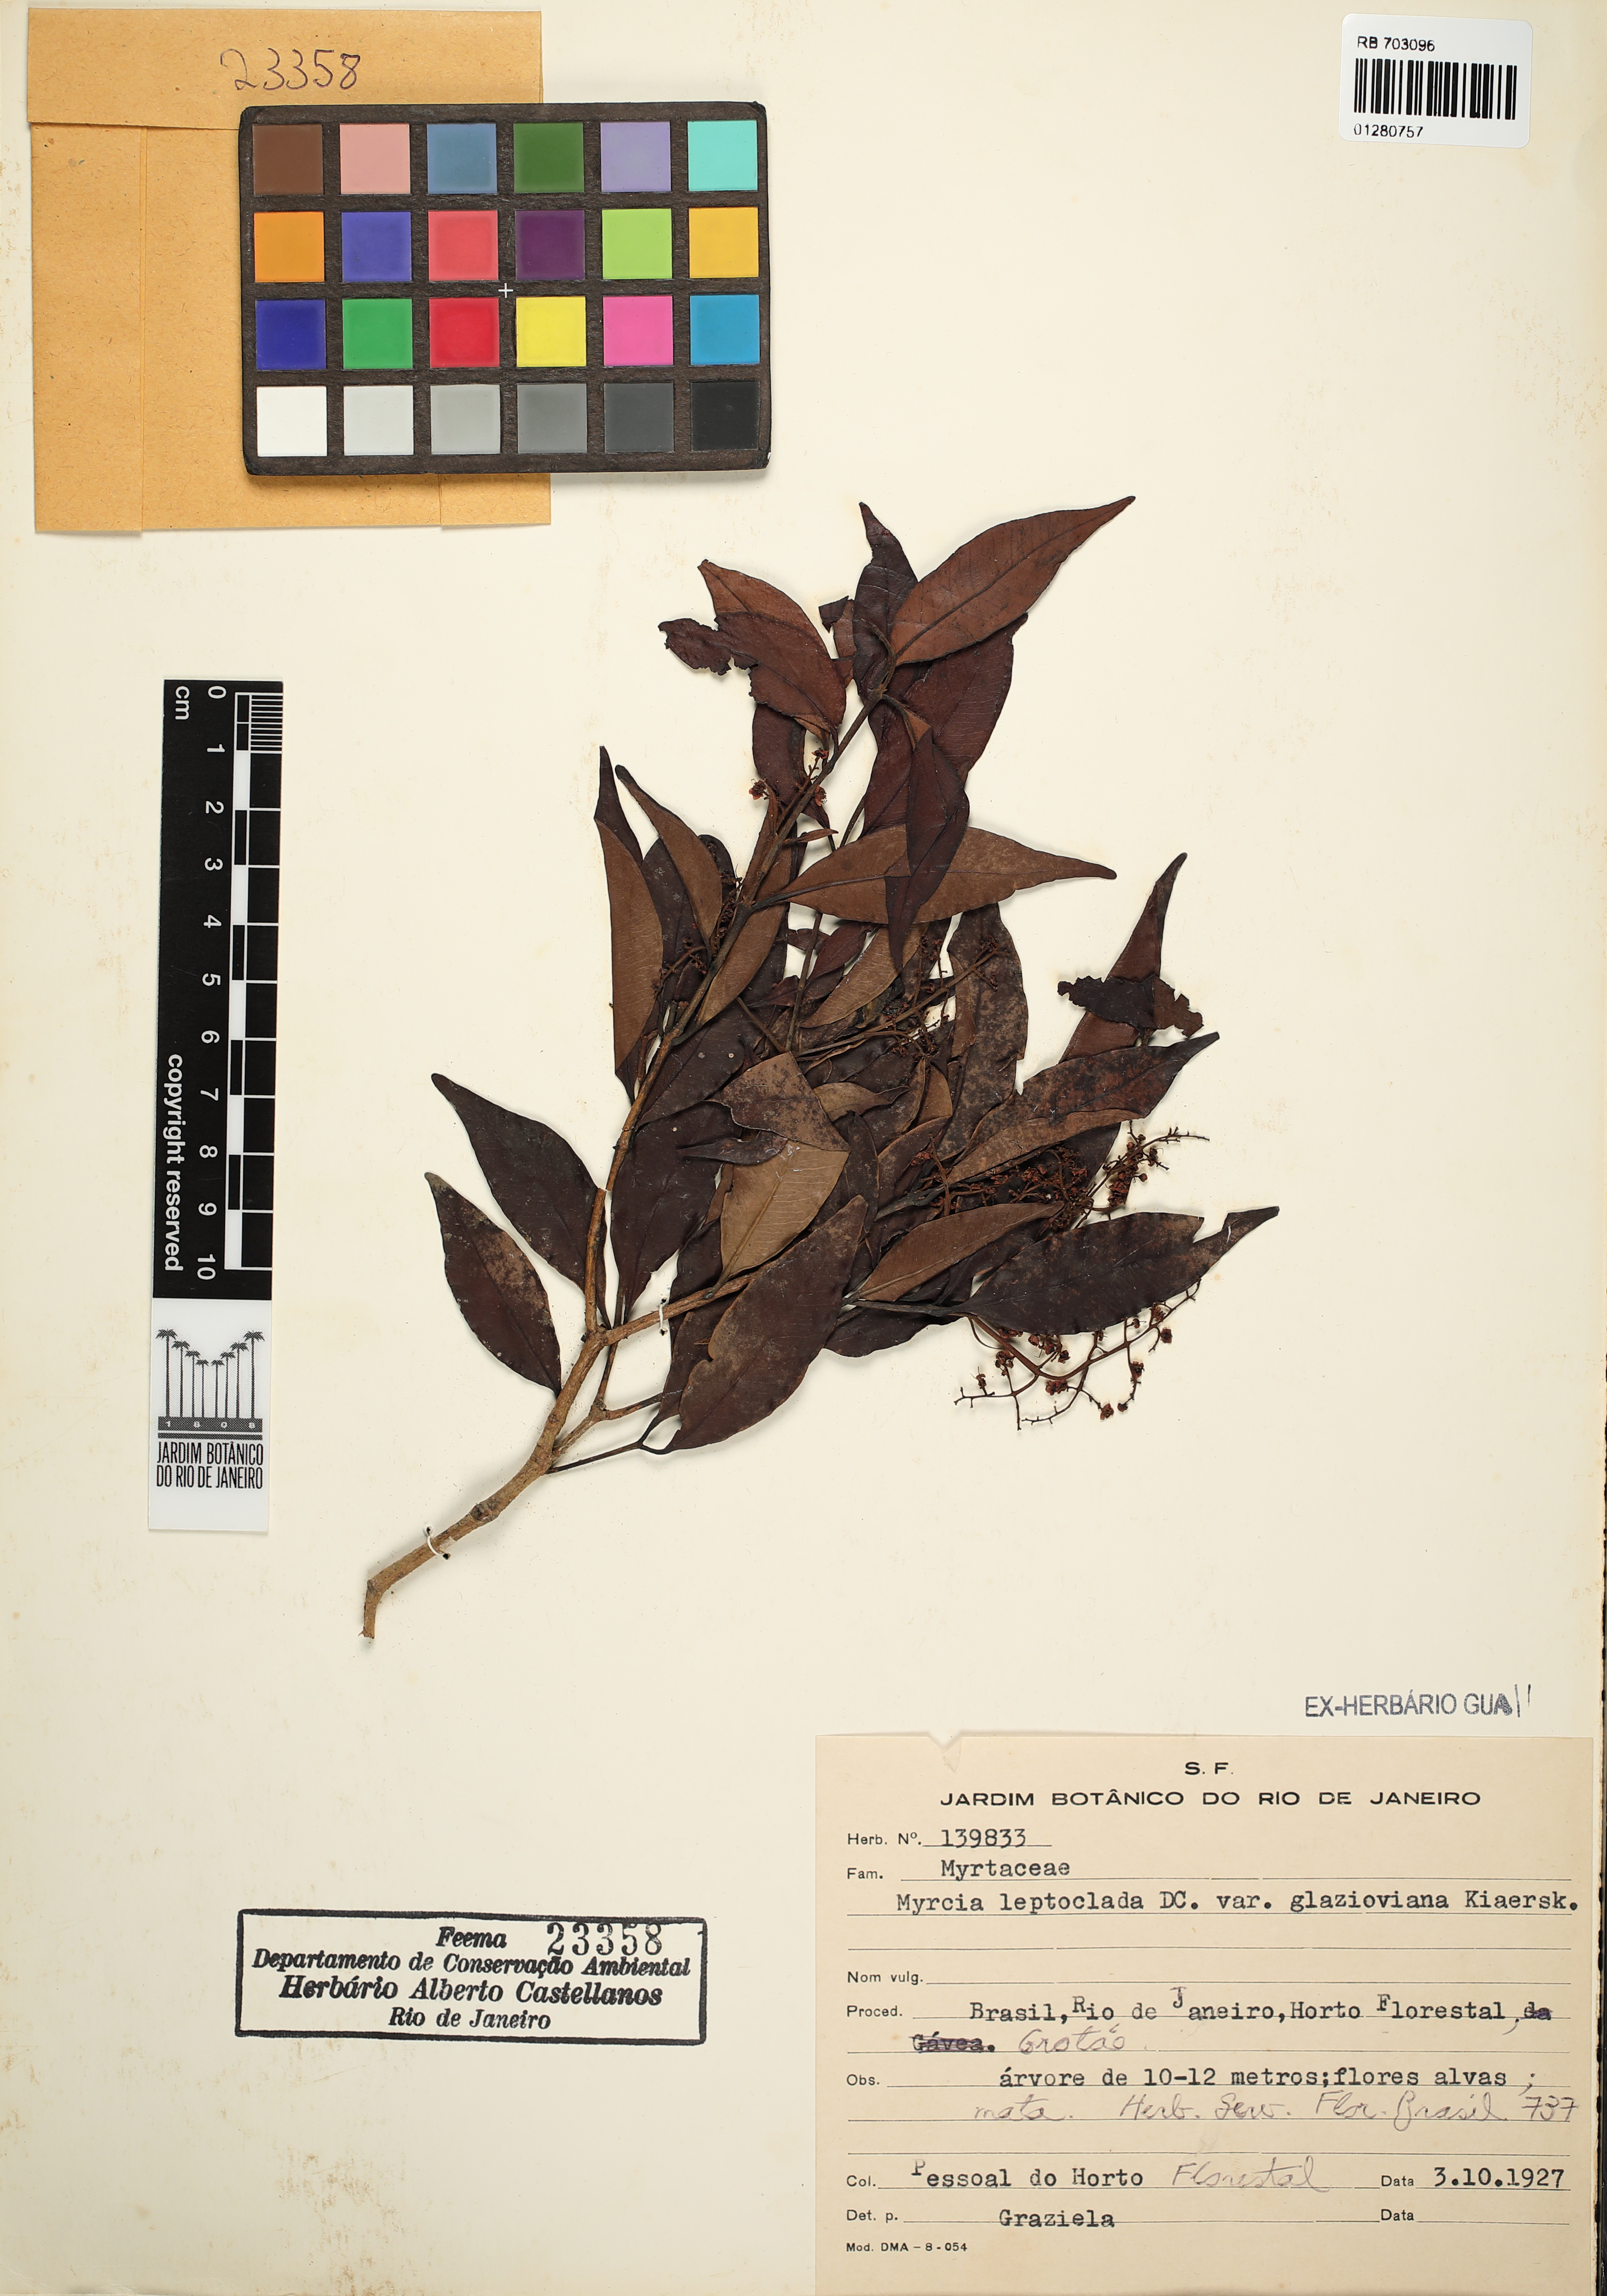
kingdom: Plantae
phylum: Tracheophyta
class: Magnoliopsida
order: Myrtales
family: Myrtaceae
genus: Myrcia
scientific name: Myrcia amazonica
